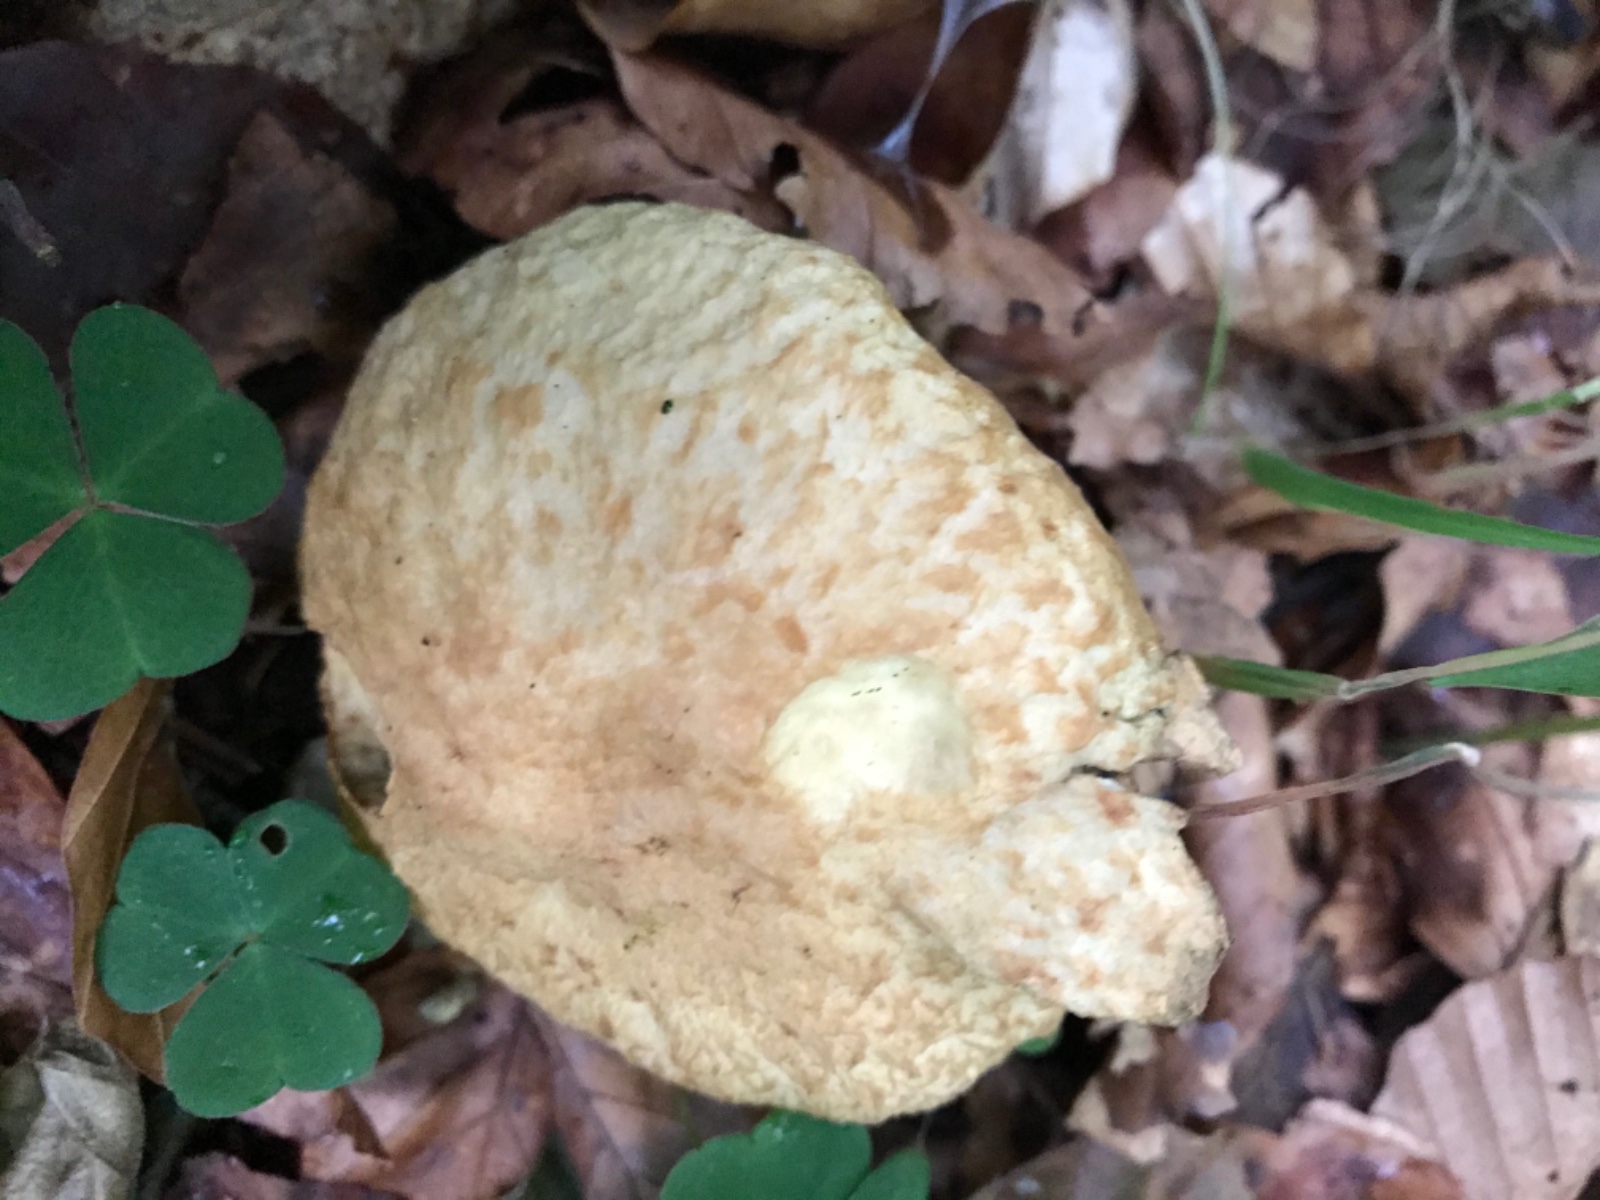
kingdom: Fungi
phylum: Basidiomycota
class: Agaricomycetes
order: Boletales
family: Gyroporaceae
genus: Gyroporus
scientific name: Gyroporus cyanescens
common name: blånende kammerrørhat
